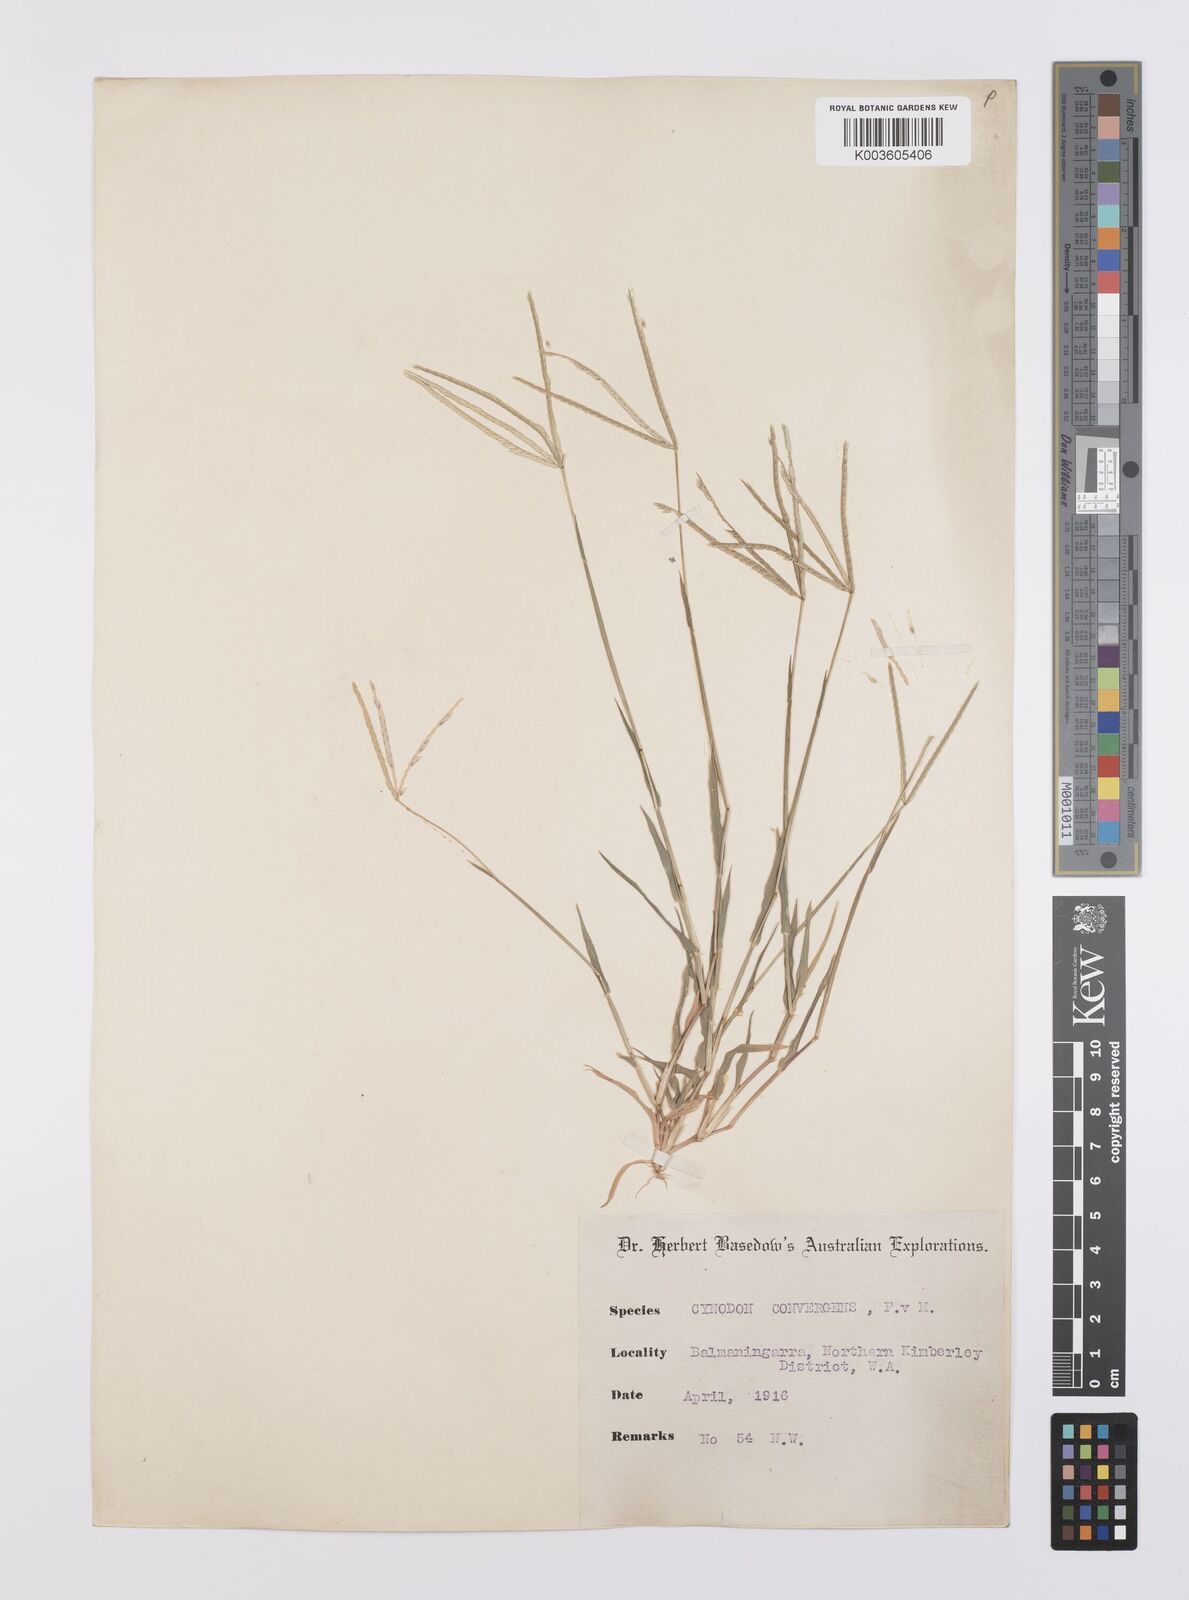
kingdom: Plantae
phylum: Tracheophyta
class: Liliopsida
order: Poales
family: Poaceae
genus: Cynodon
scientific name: Cynodon
